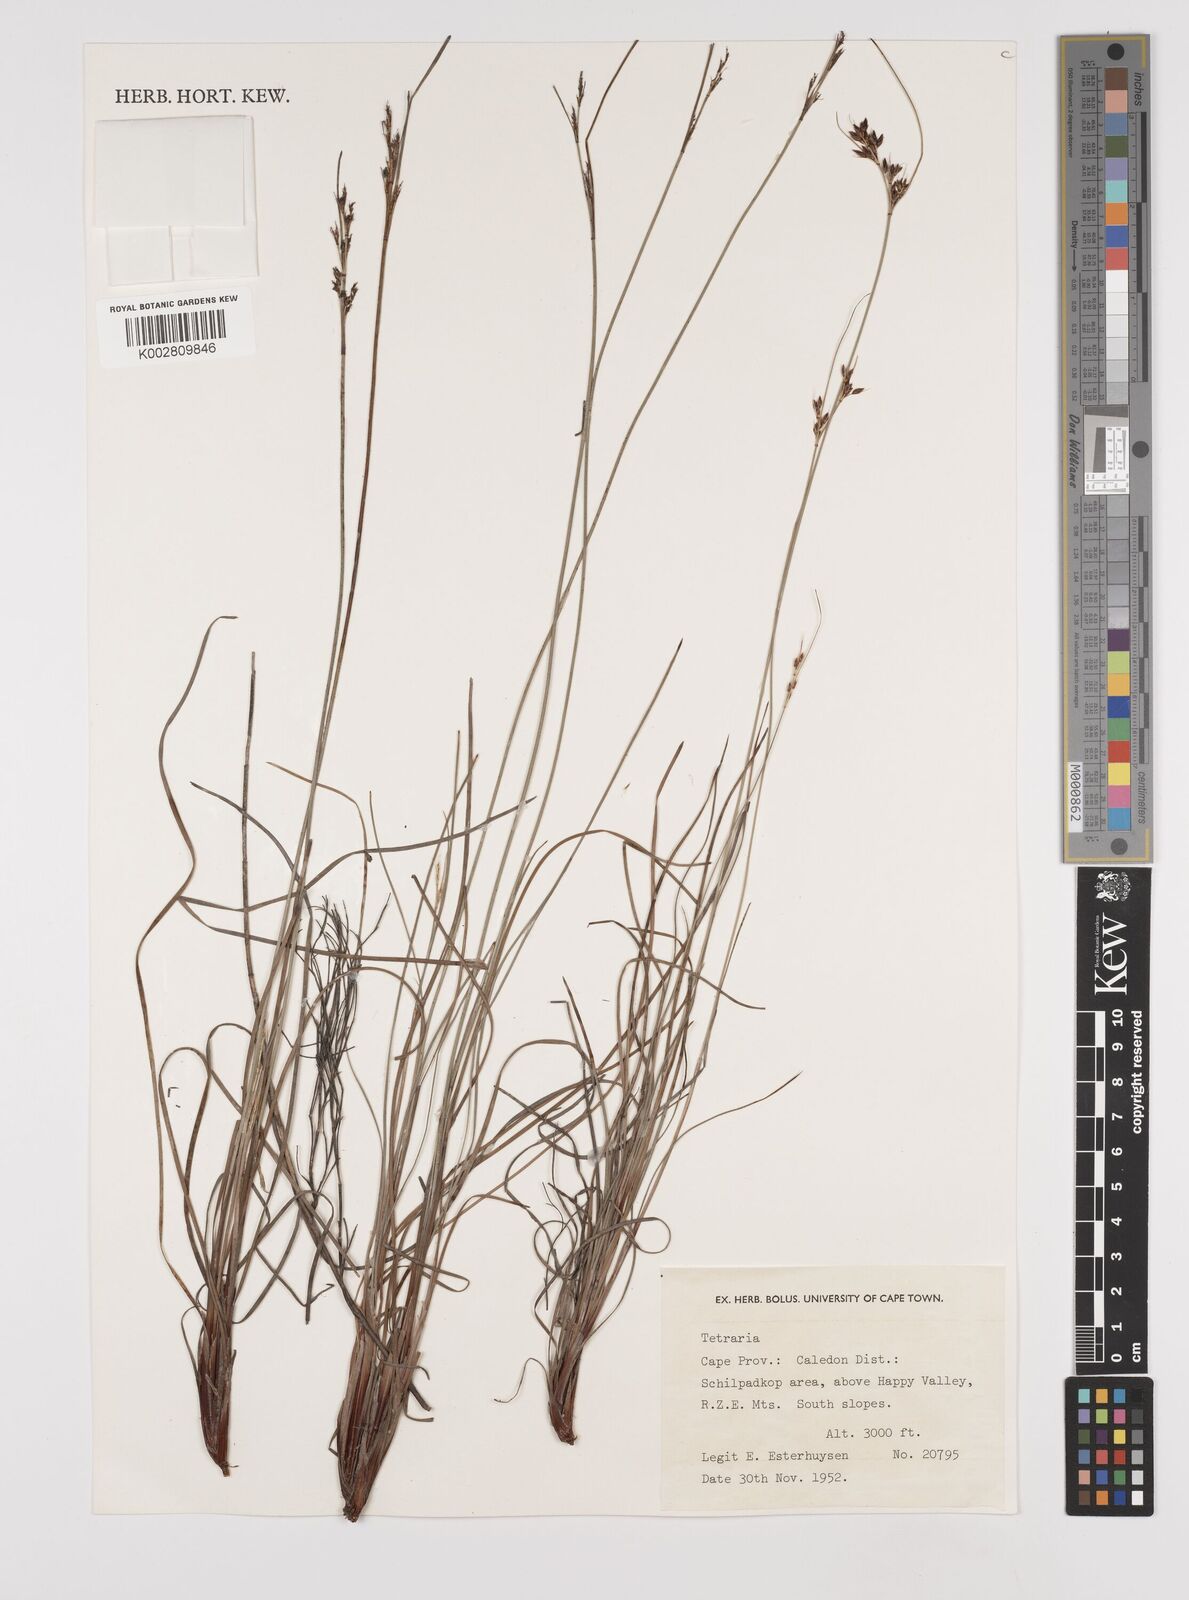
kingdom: Plantae
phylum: Tracheophyta
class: Liliopsida
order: Poales
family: Cyperaceae
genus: Schoenus
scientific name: Schoenus
